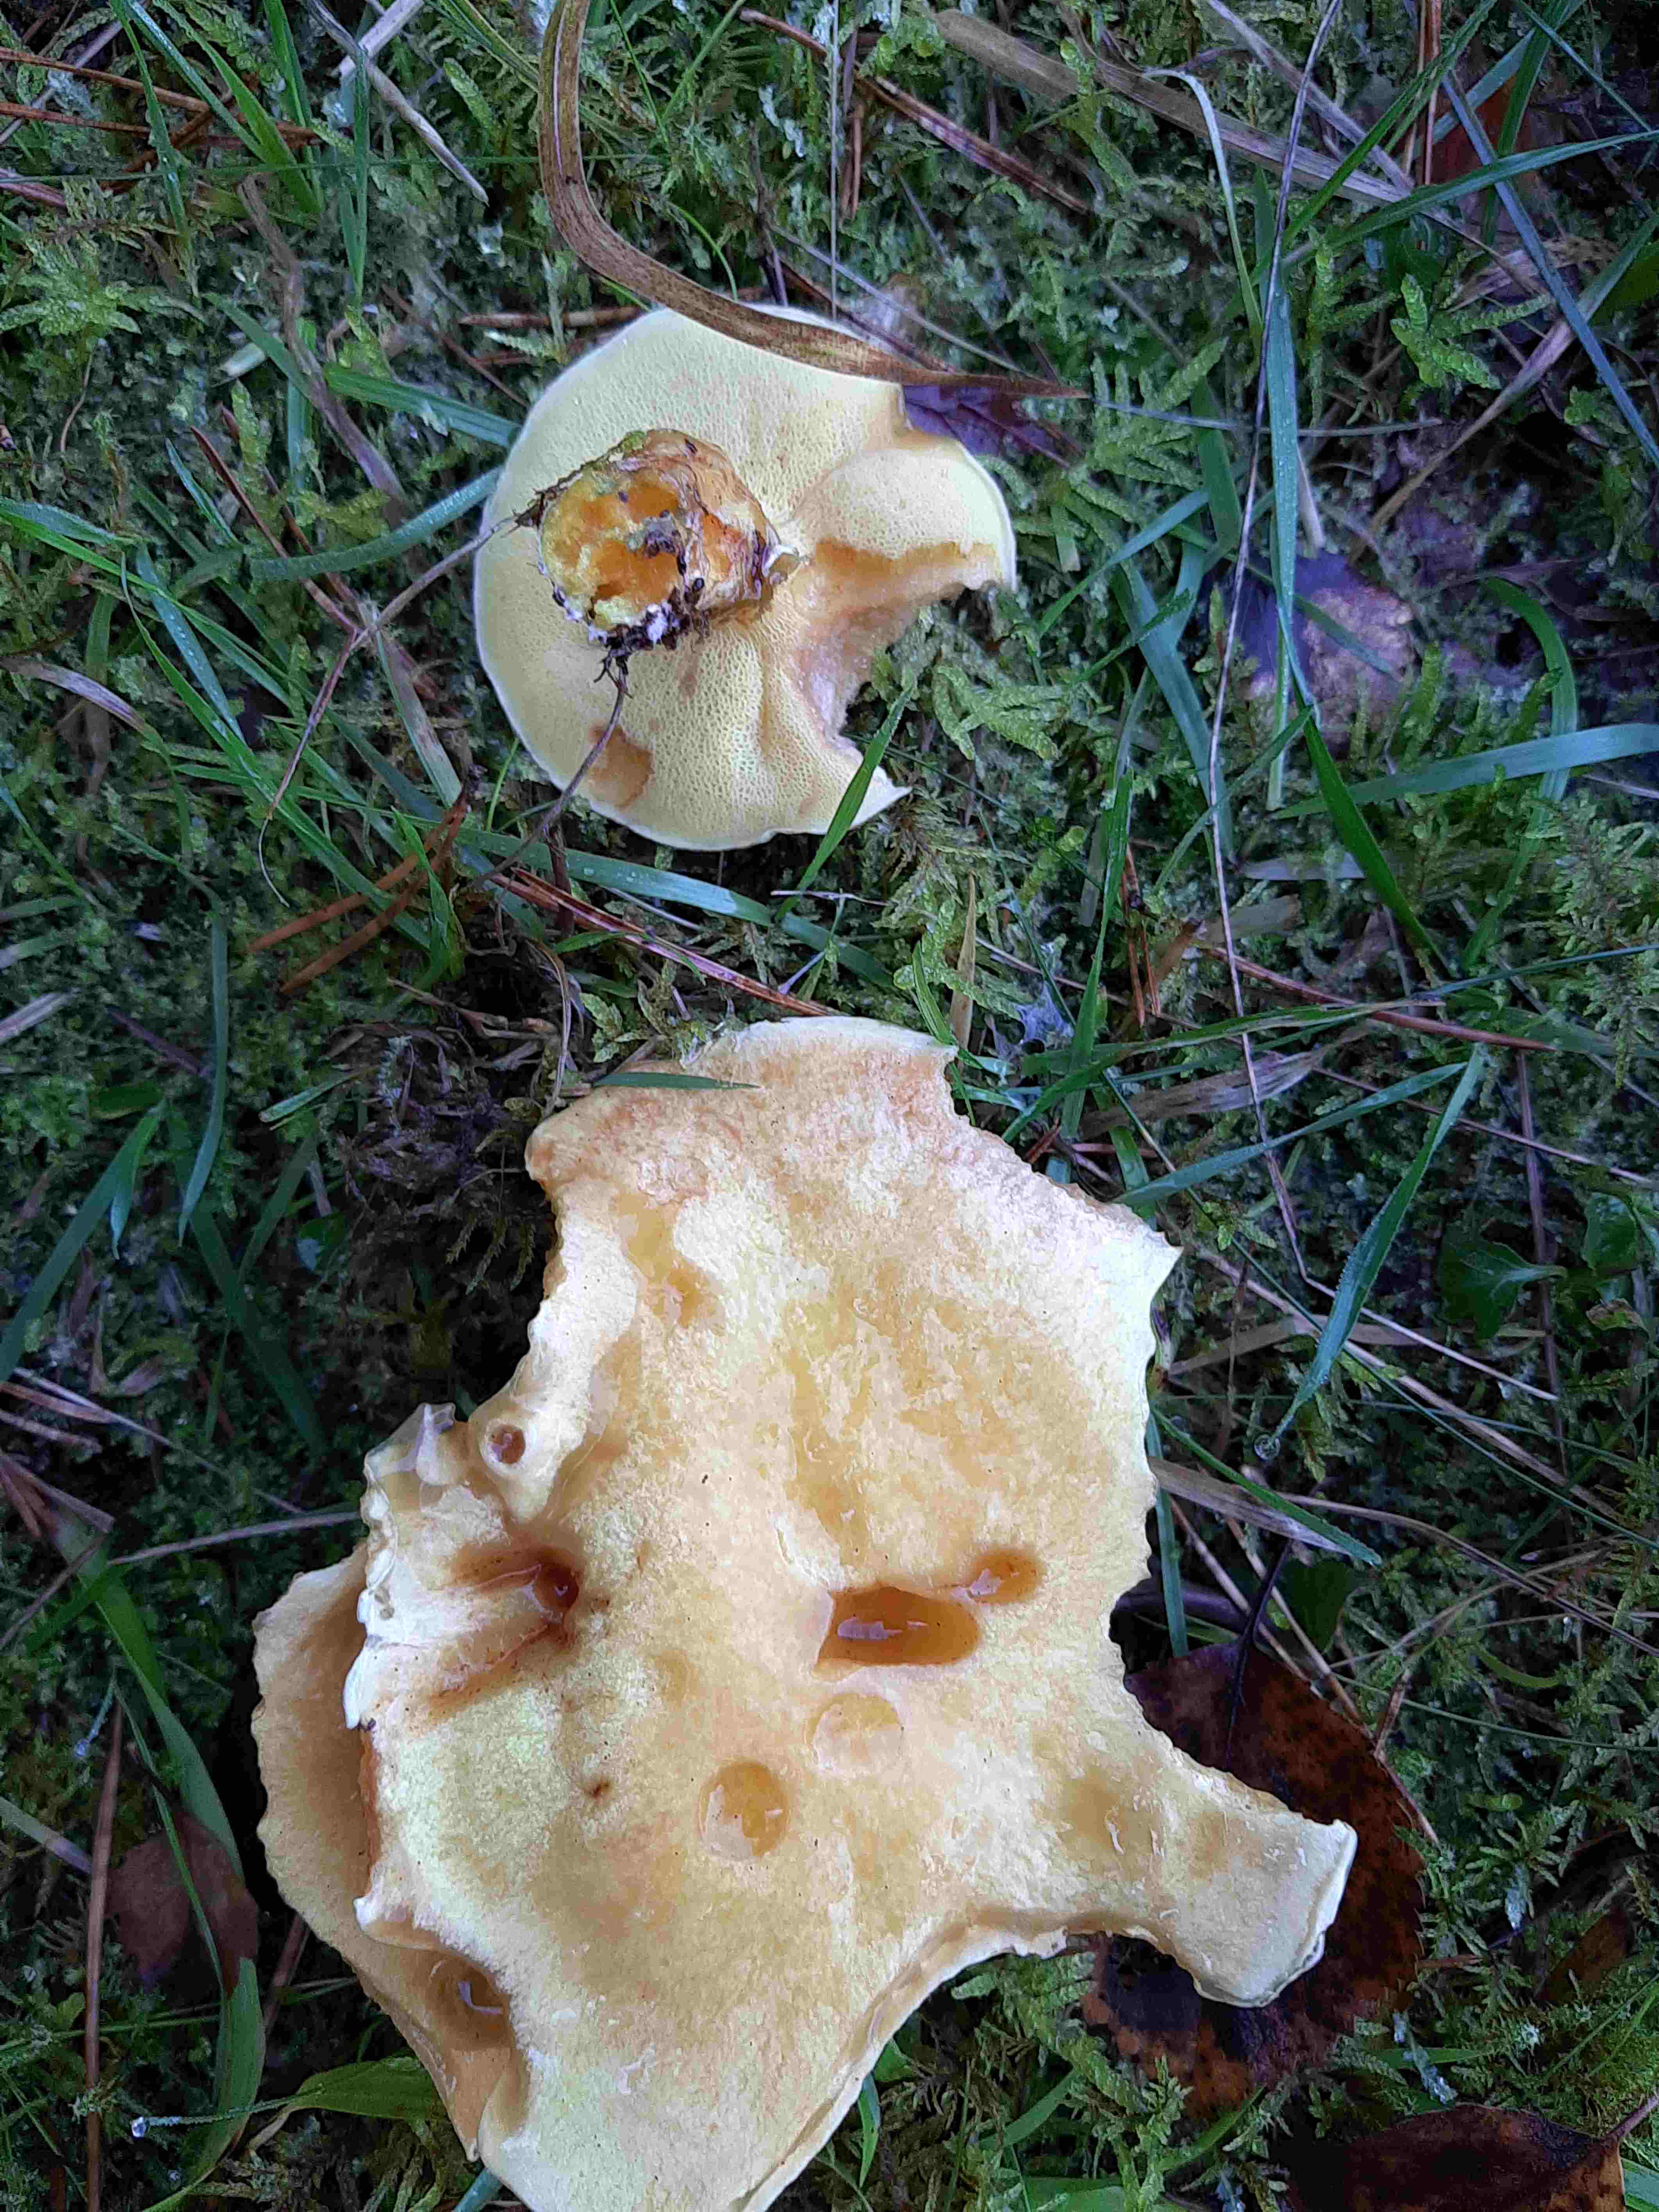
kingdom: Fungi
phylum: Basidiomycota
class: Agaricomycetes
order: Boletales
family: Suillaceae
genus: Suillus
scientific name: Suillus grevillei
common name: lærke-slimrørhat
